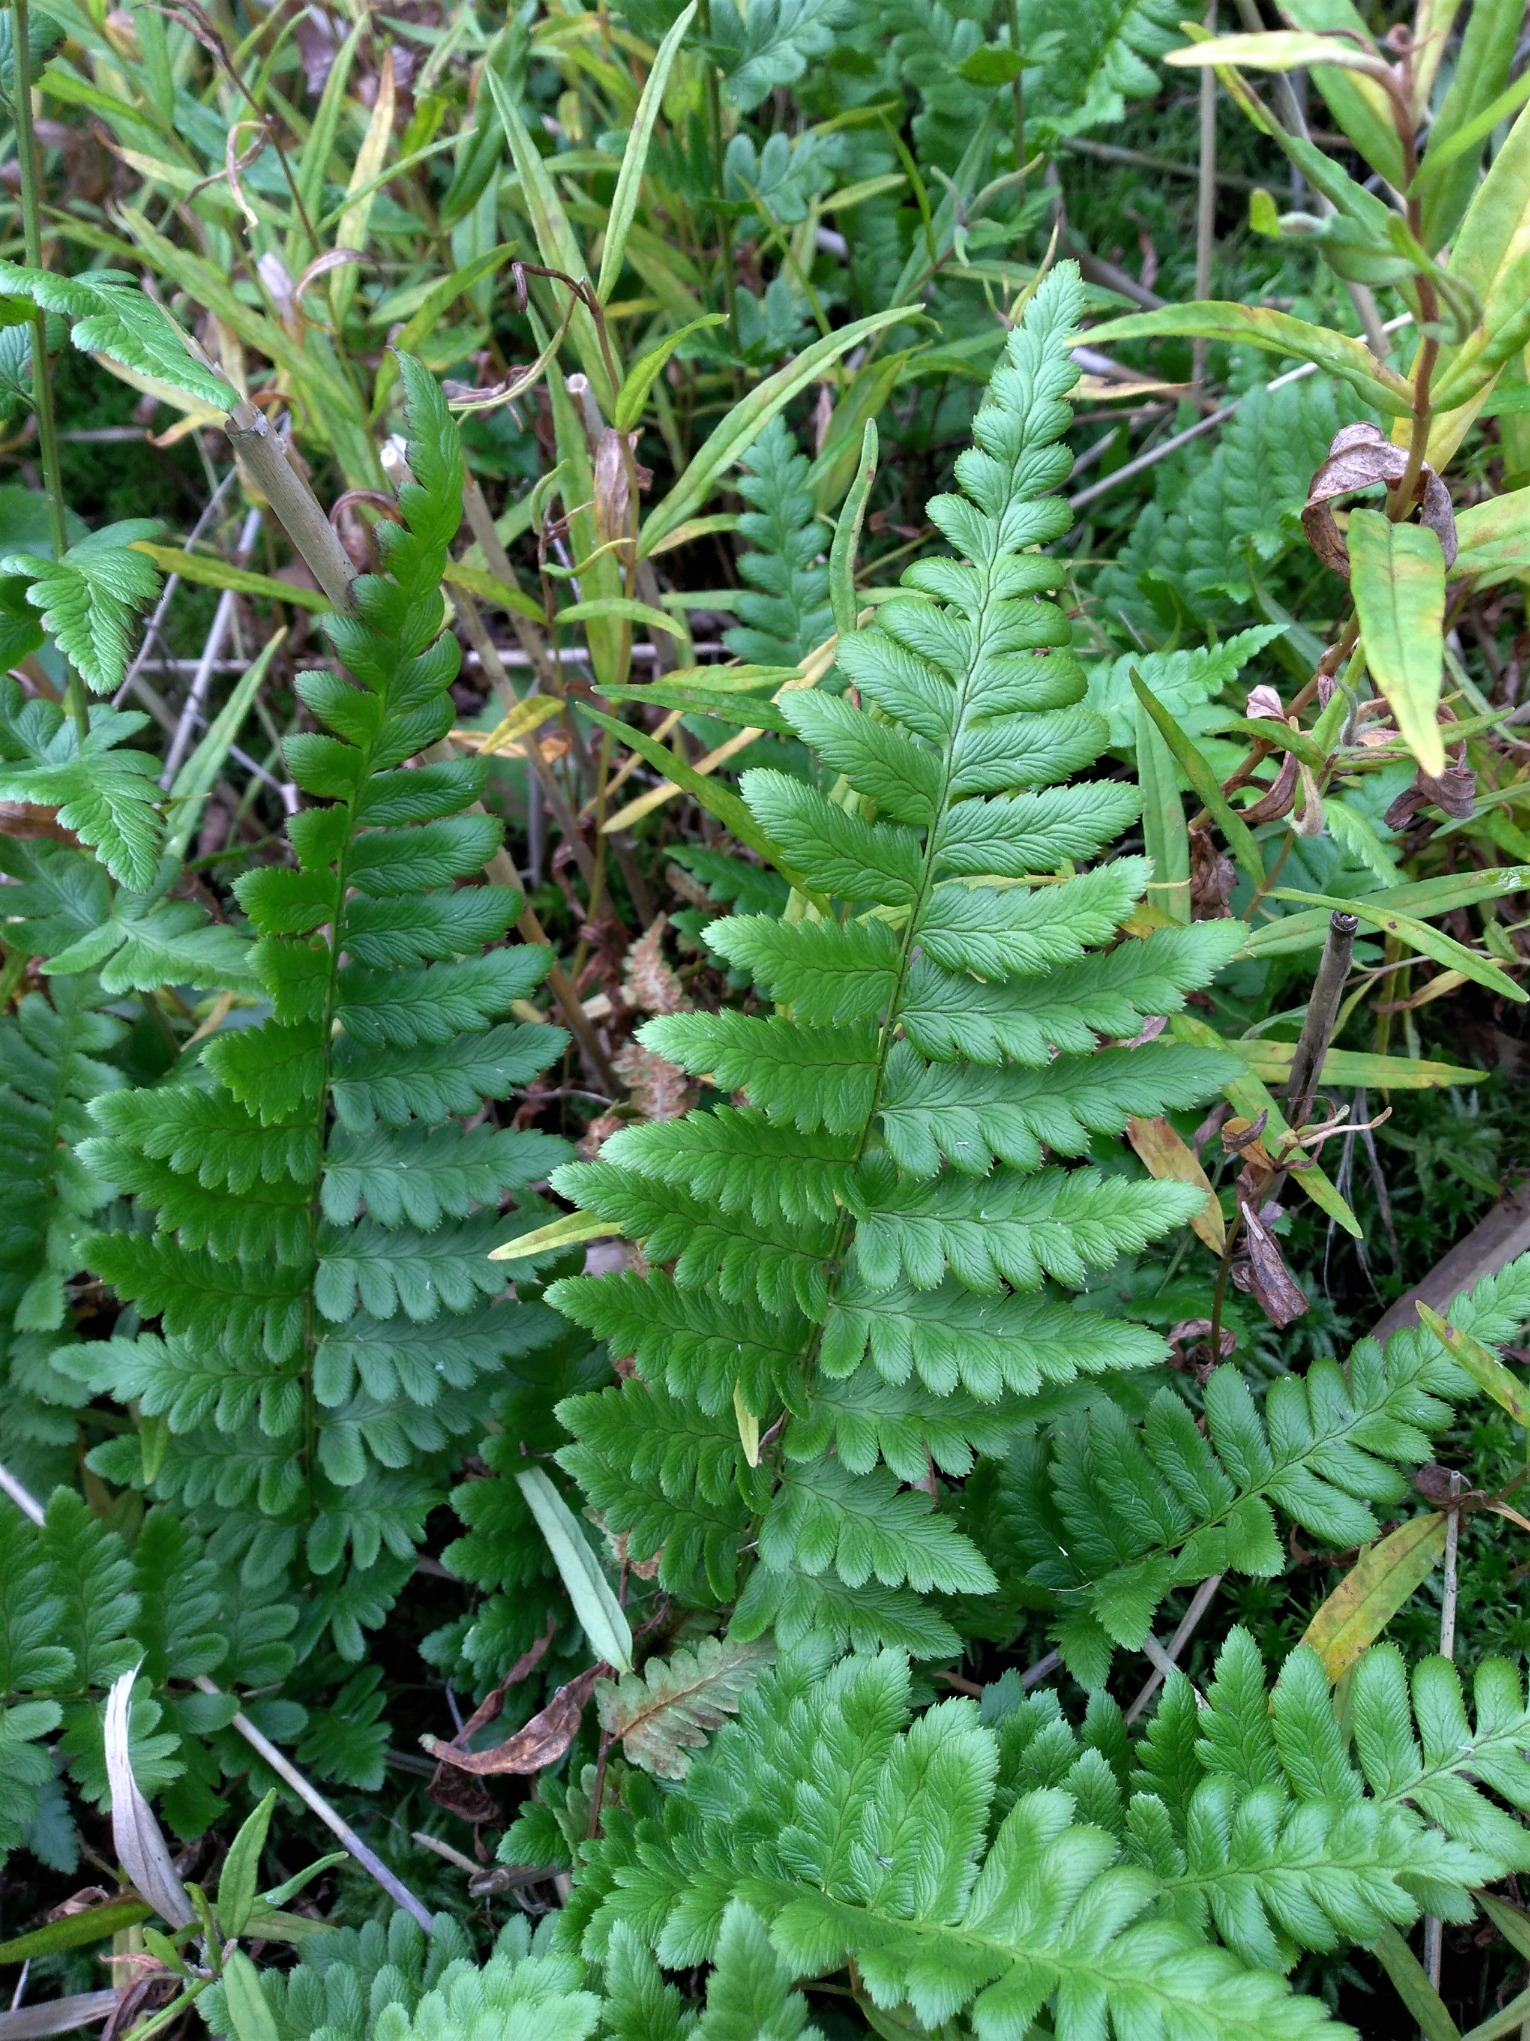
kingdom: Plantae
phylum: Tracheophyta
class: Polypodiopsida
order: Polypodiales
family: Dryopteridaceae
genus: Dryopteris
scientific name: Dryopteris cristata
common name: Butfinnet mangeløv
